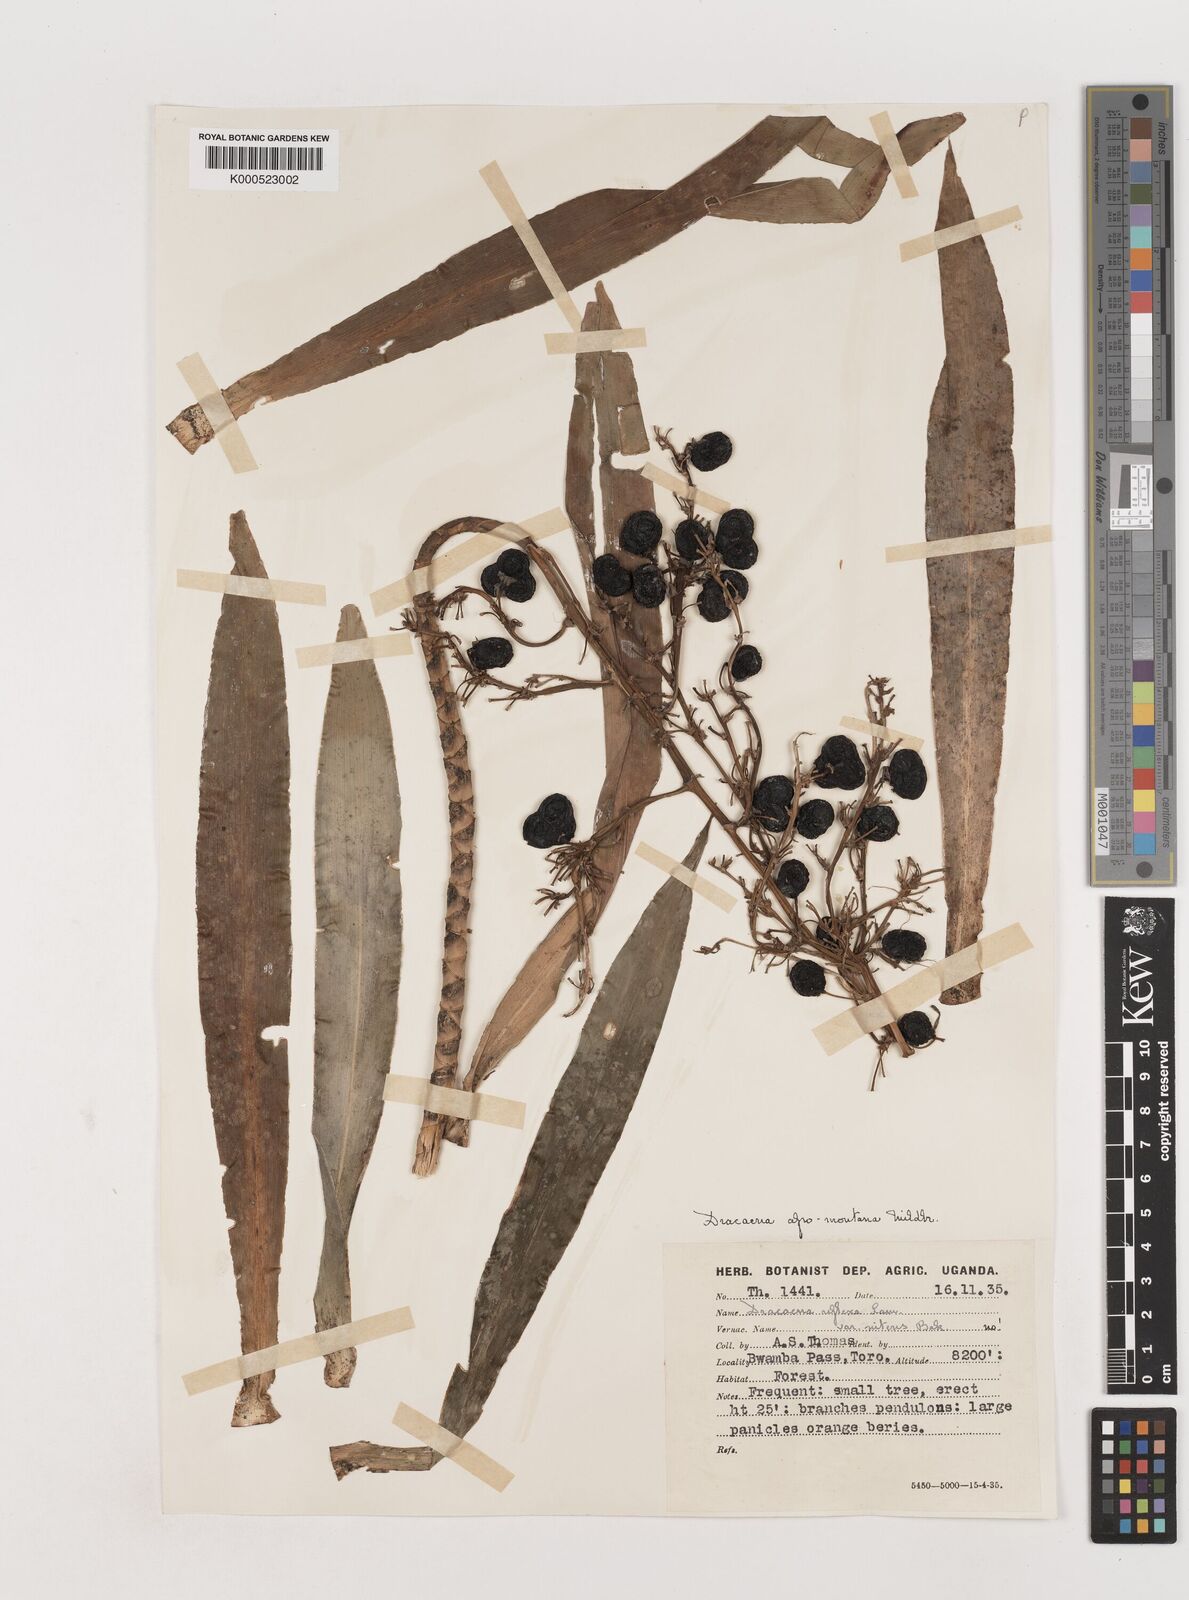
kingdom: Plantae
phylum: Tracheophyta
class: Liliopsida
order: Asparagales
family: Asparagaceae
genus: Dracaena
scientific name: Dracaena afromontana
